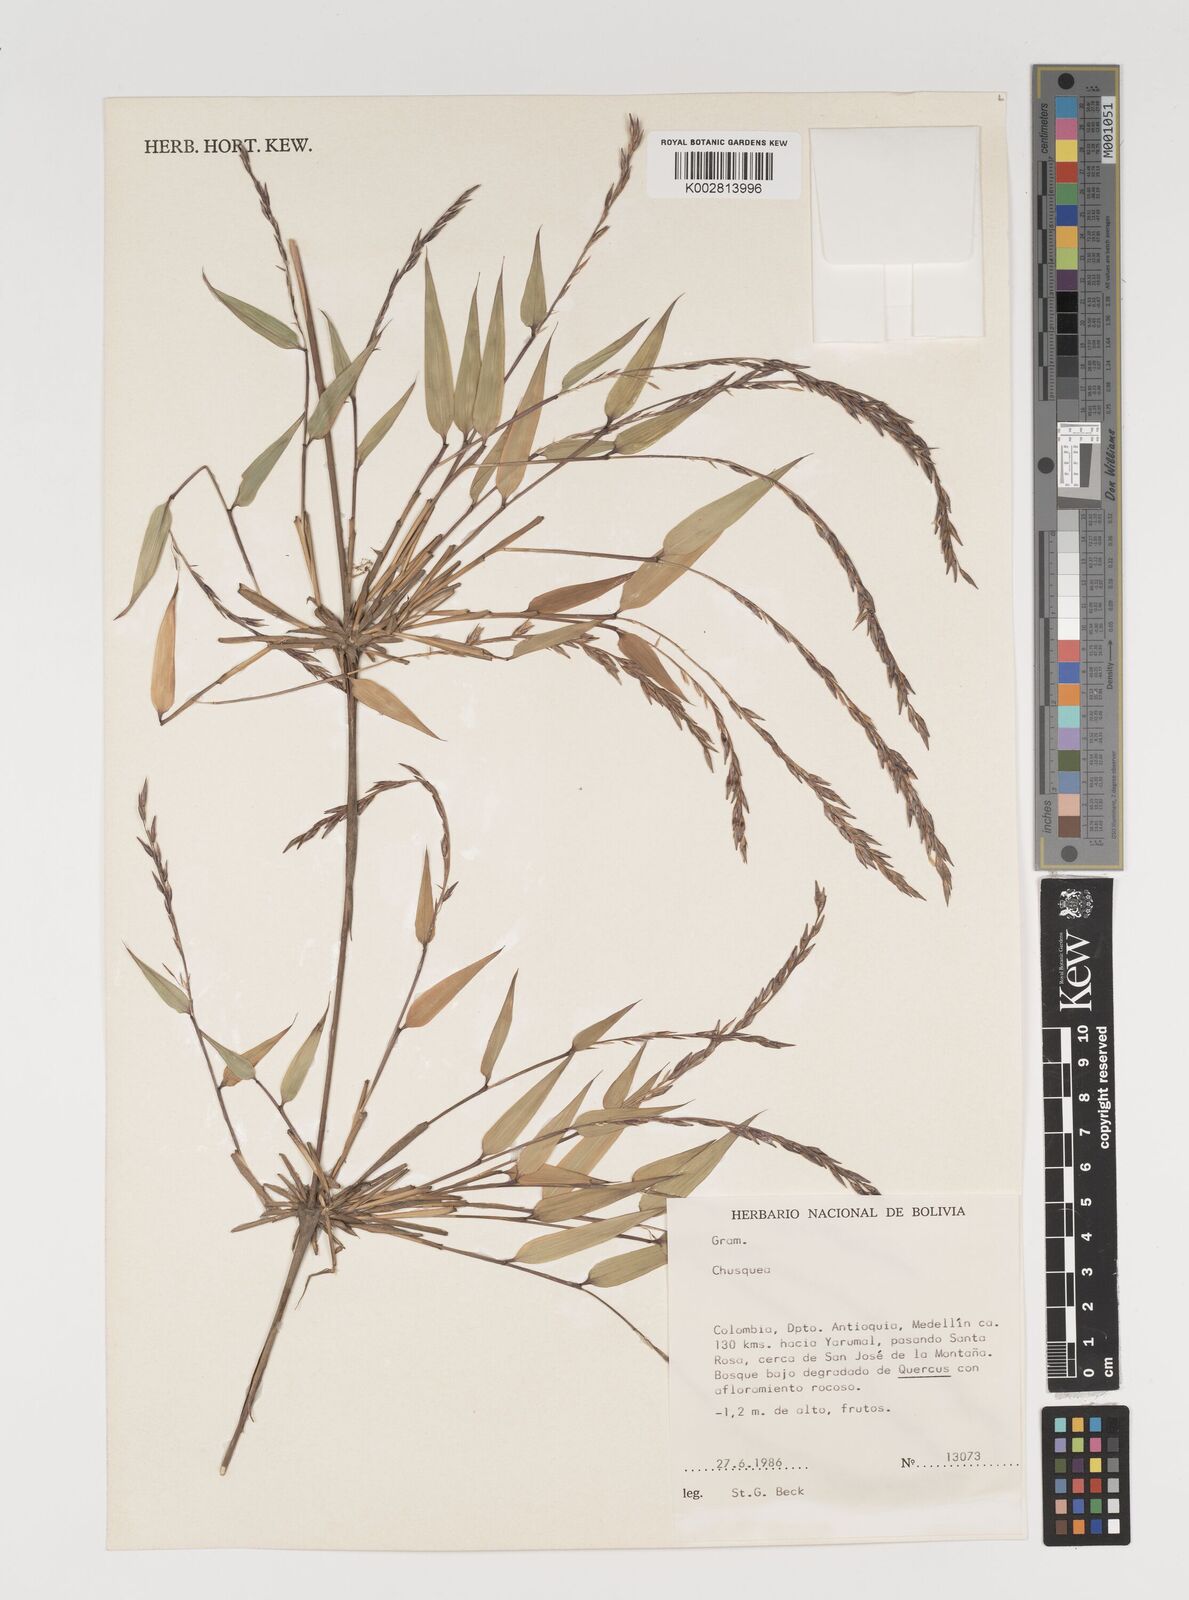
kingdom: Plantae
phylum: Tracheophyta
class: Liliopsida
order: Poales
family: Poaceae
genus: Chusquea
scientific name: Chusquea
